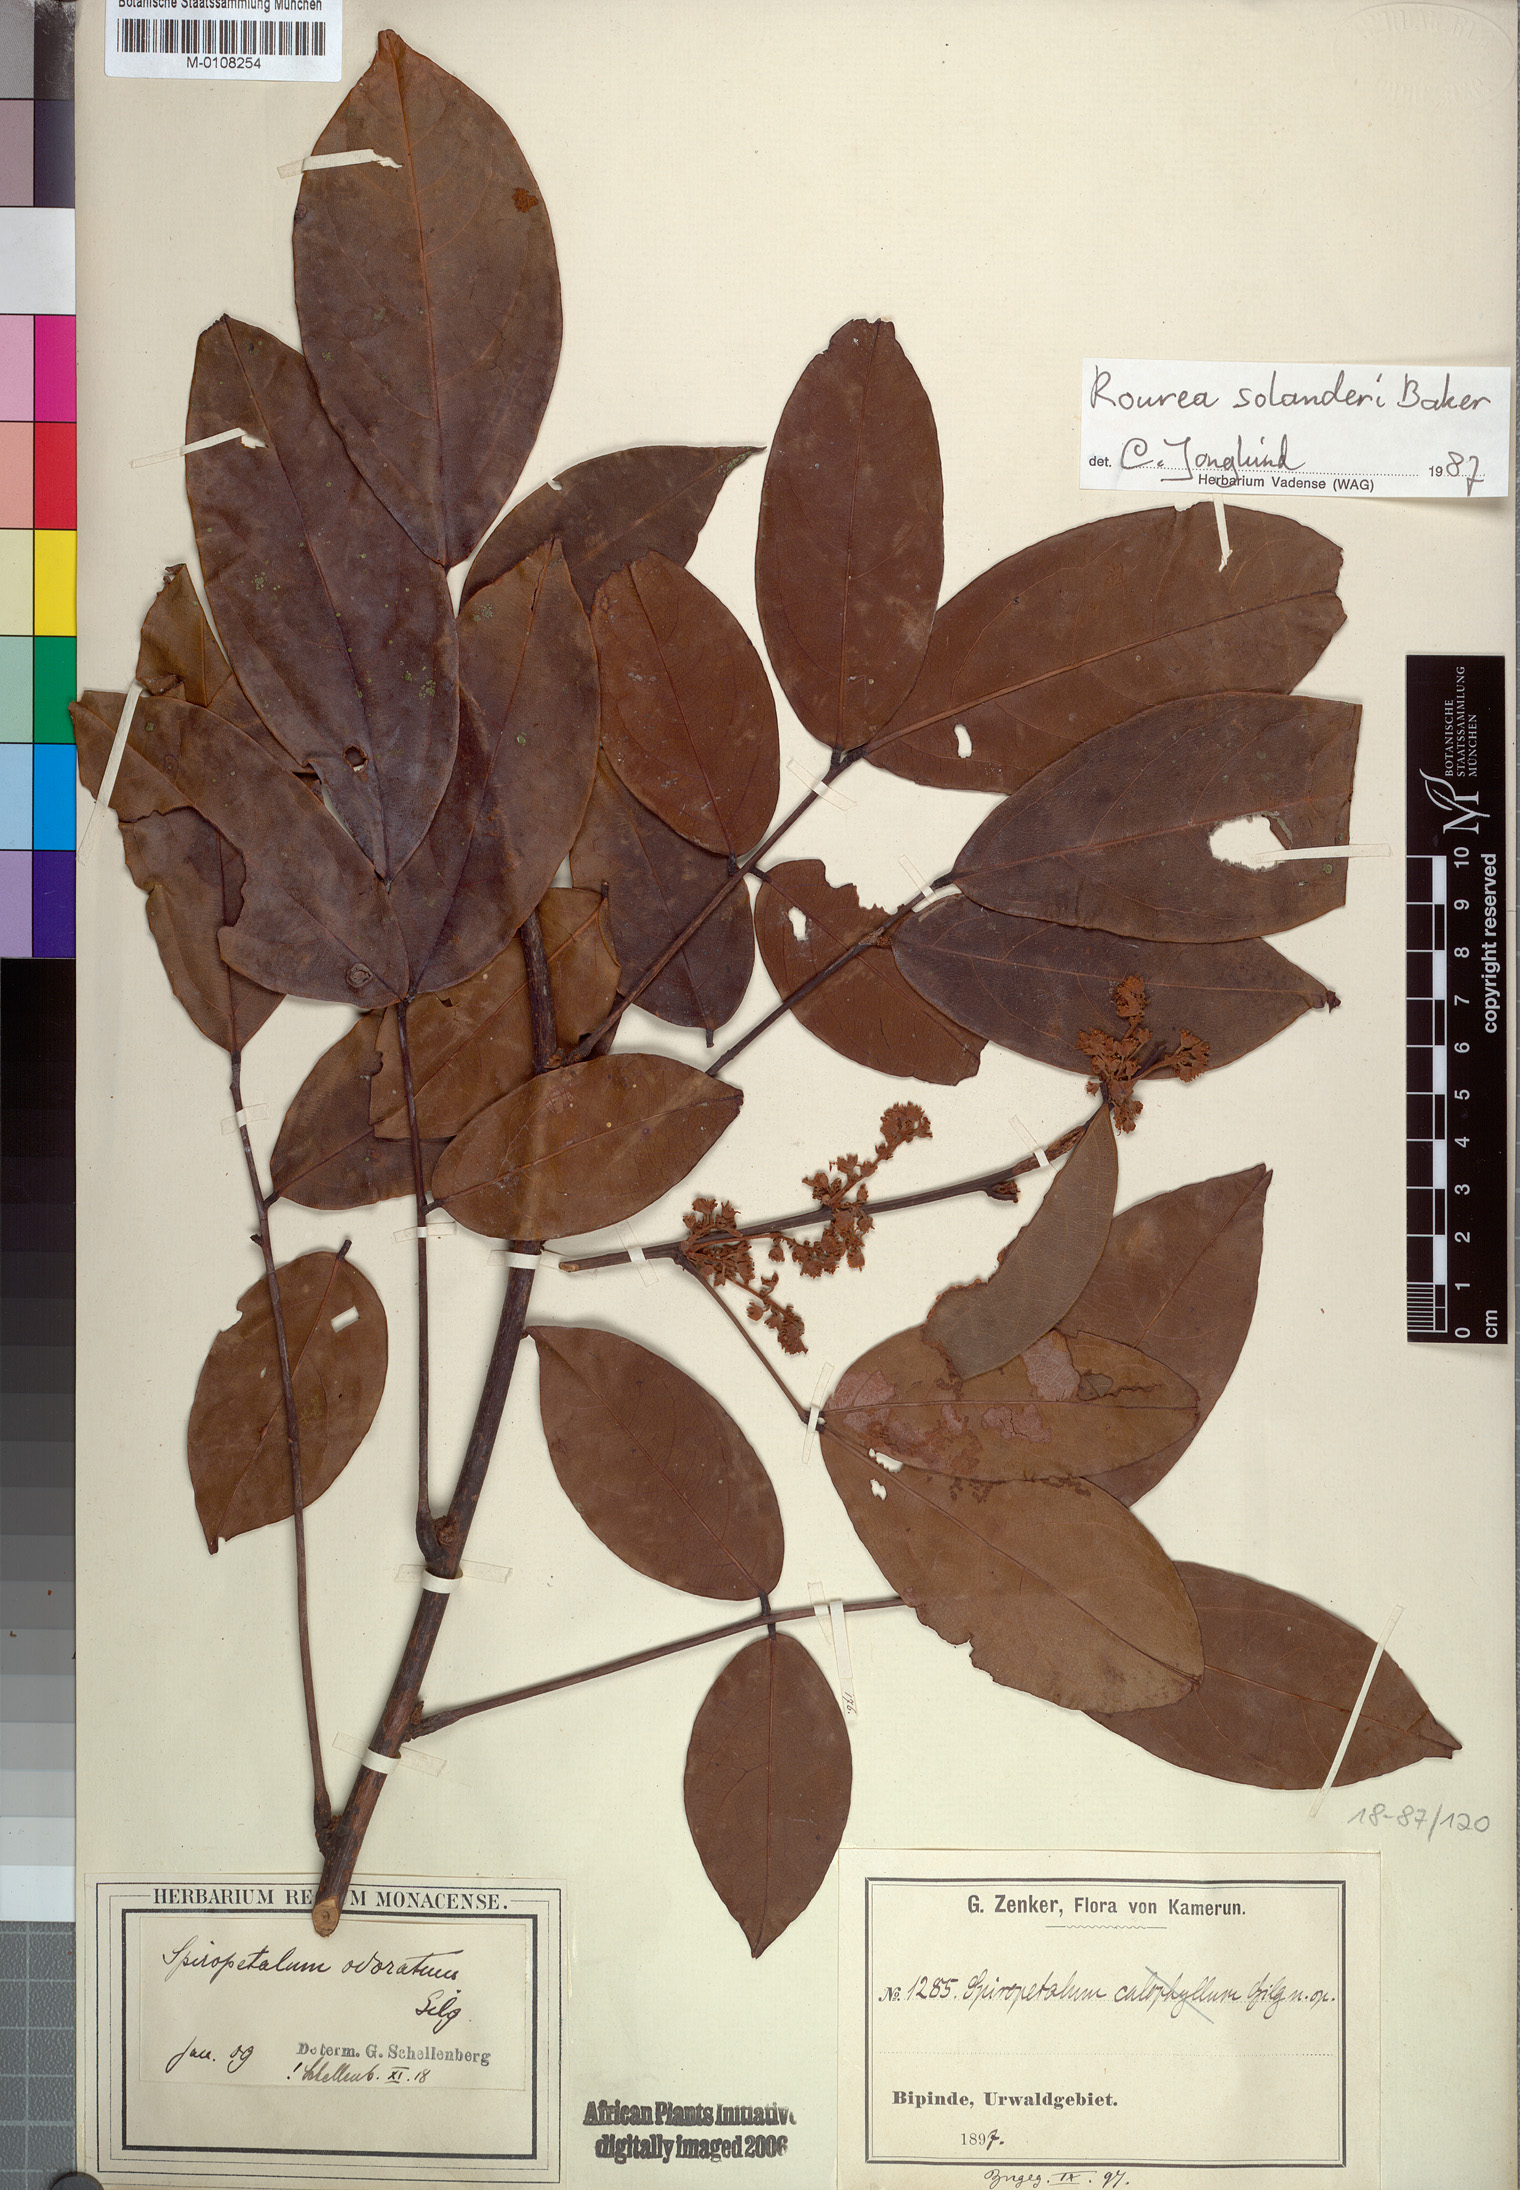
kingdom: Plantae
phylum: Tracheophyta
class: Magnoliopsida
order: Oxalidales
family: Connaraceae
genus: Rourea
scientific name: Rourea solanderi
